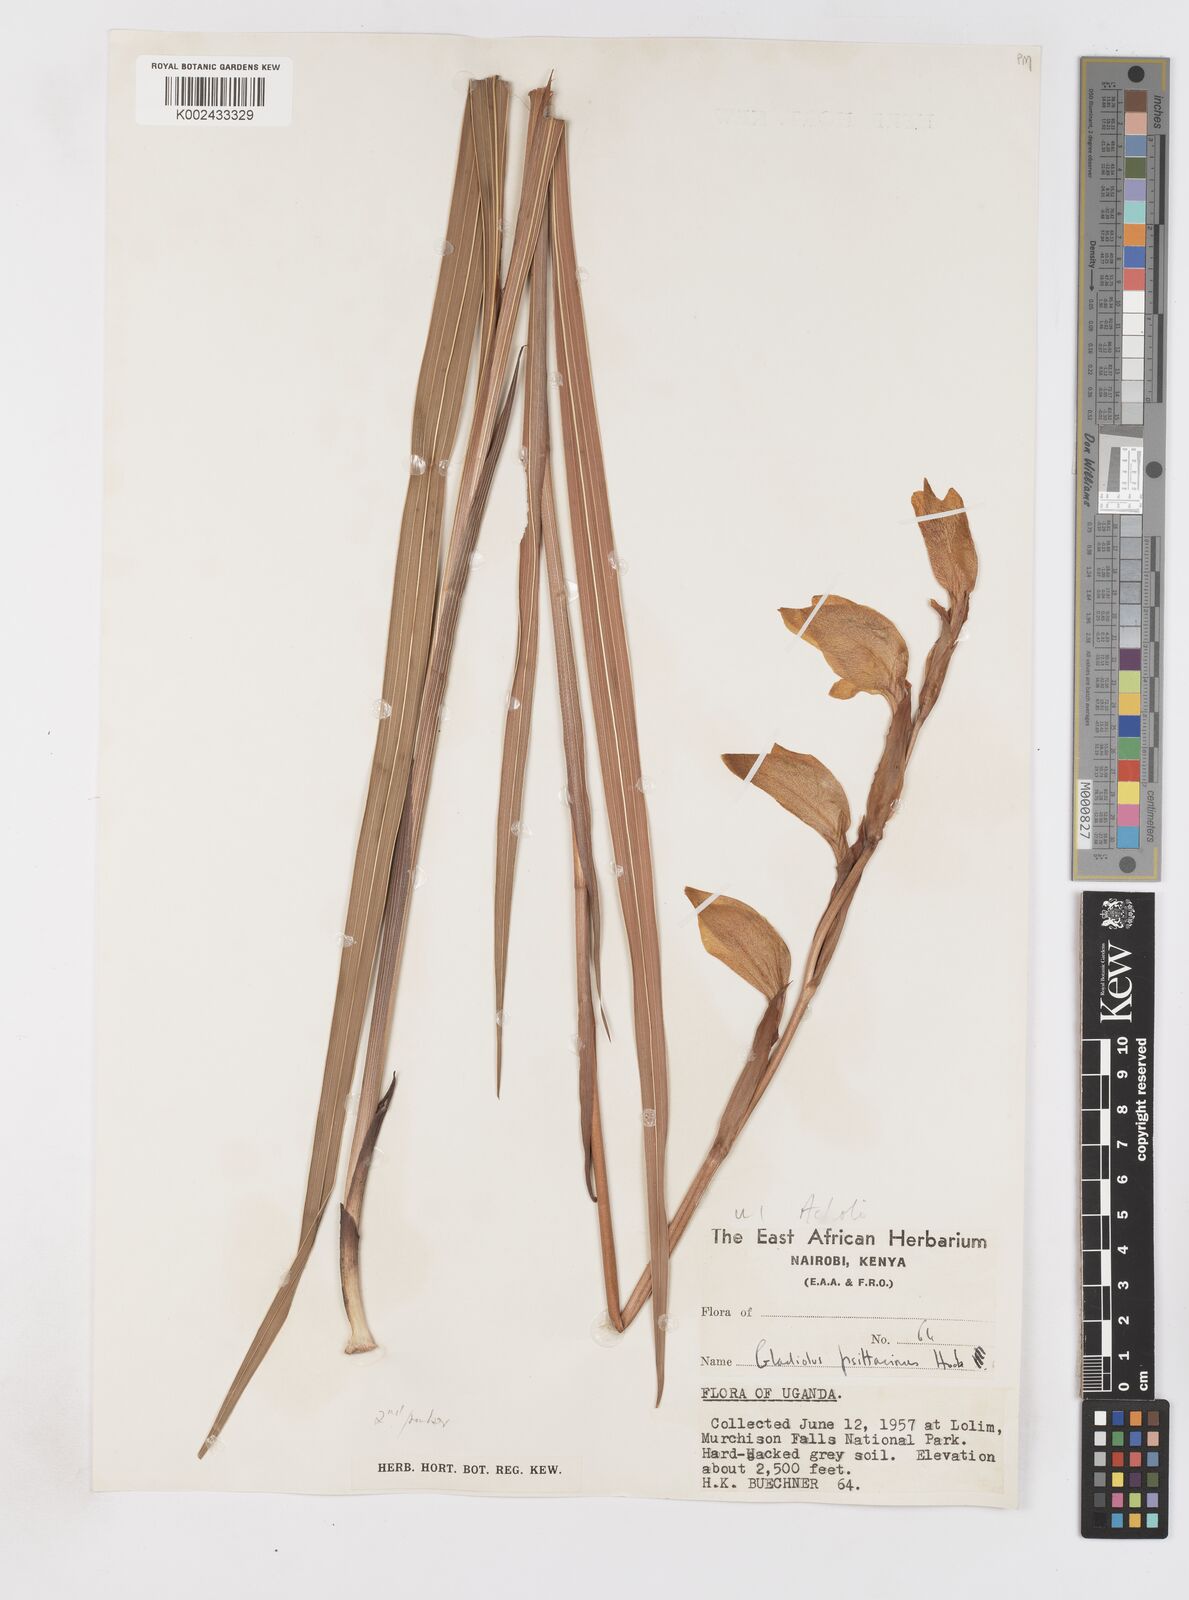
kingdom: Plantae
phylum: Tracheophyta
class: Liliopsida
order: Asparagales
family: Iridaceae
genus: Gladiolus
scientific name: Gladiolus dalenii
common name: Cornflag
